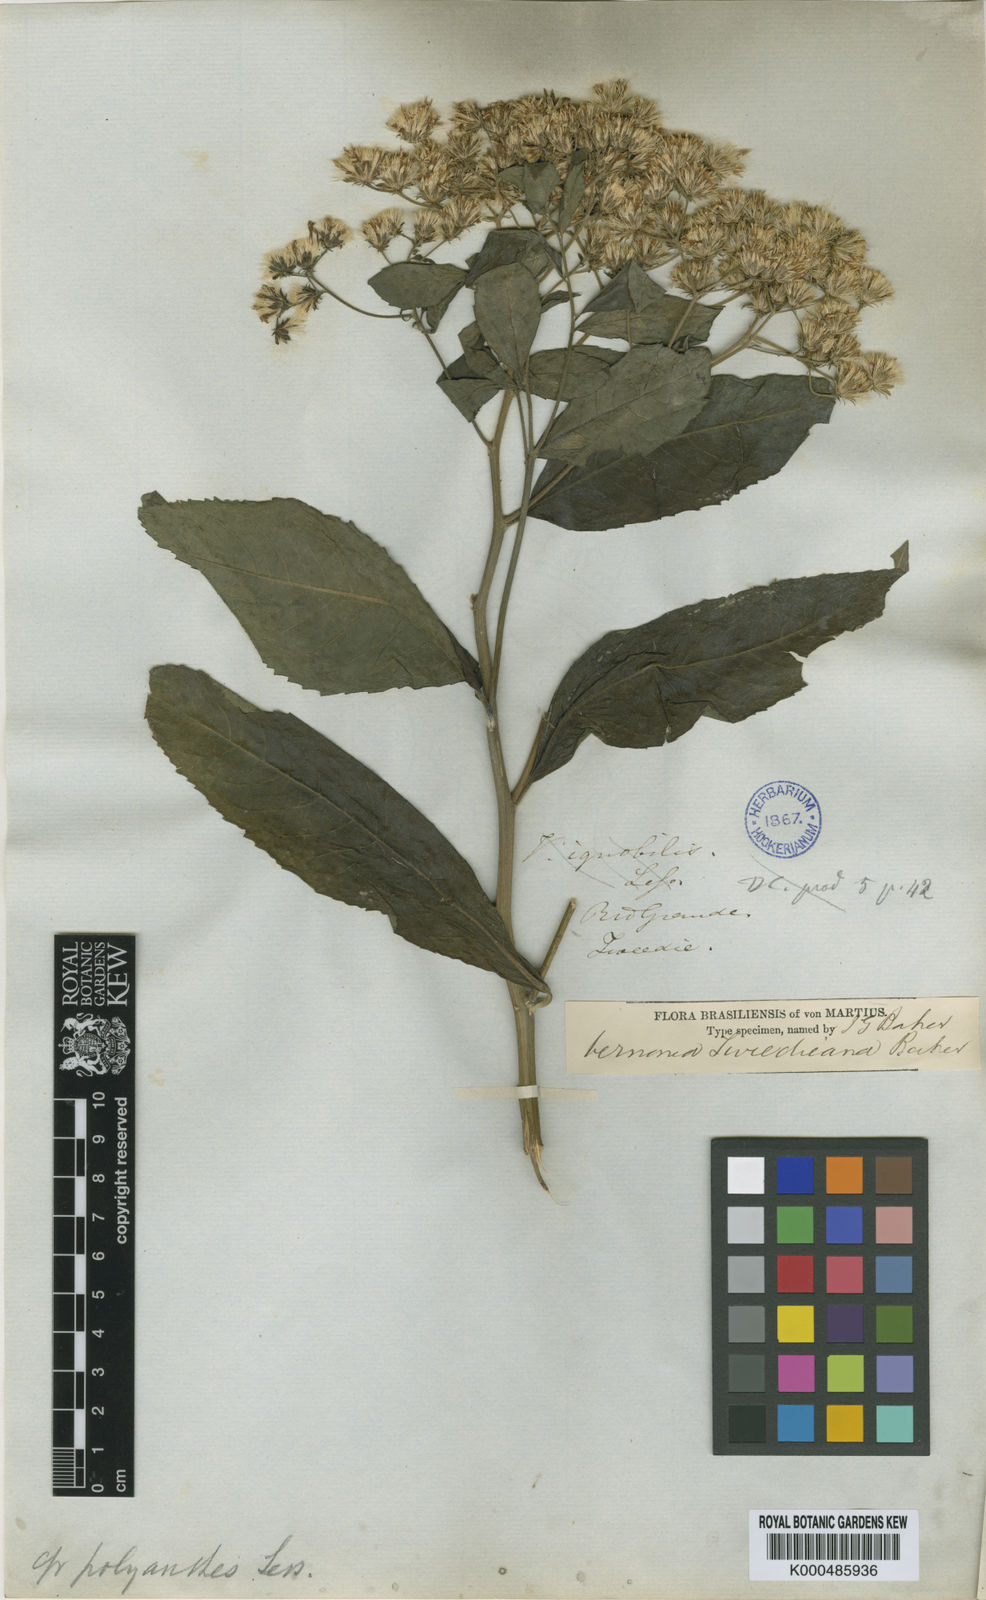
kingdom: Plantae
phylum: Tracheophyta
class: Magnoliopsida
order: Asterales
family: Asteraceae
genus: Vernonanthura
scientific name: Vernonanthura tweedieana
